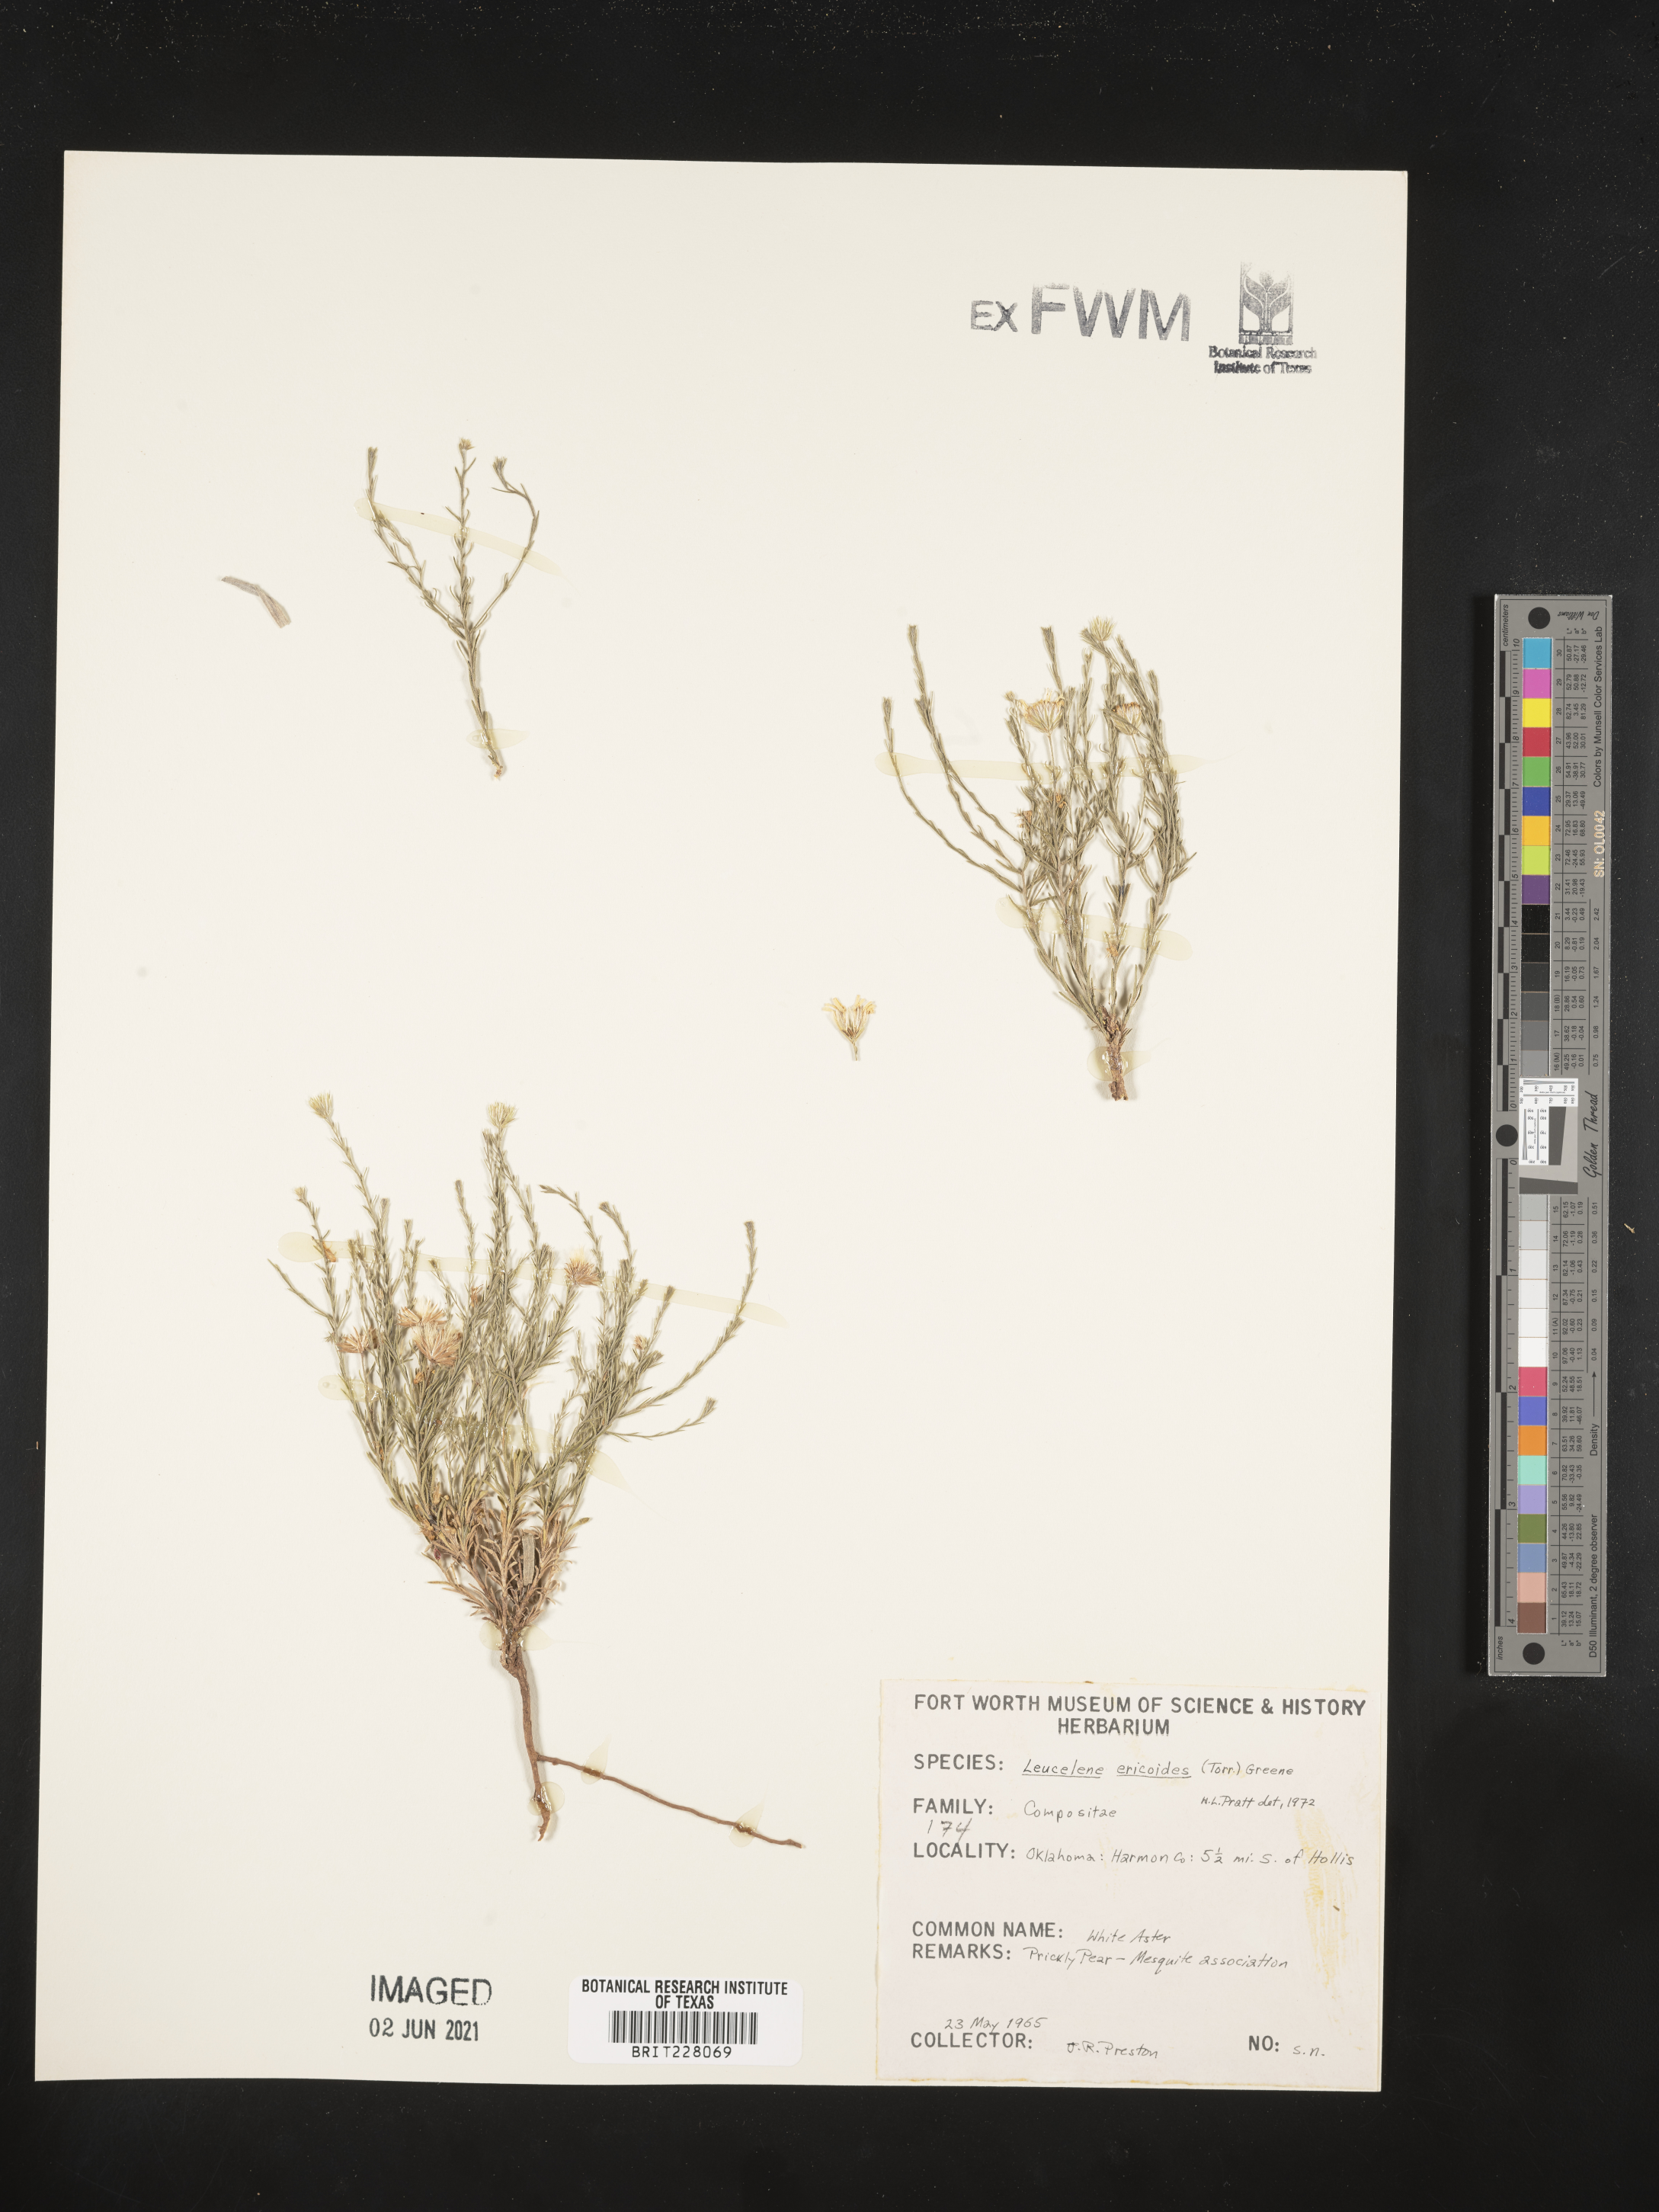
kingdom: Plantae
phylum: Tracheophyta
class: Magnoliopsida
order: Asterales
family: Asteraceae
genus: Chaetopappa
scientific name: Chaetopappa ericoides
